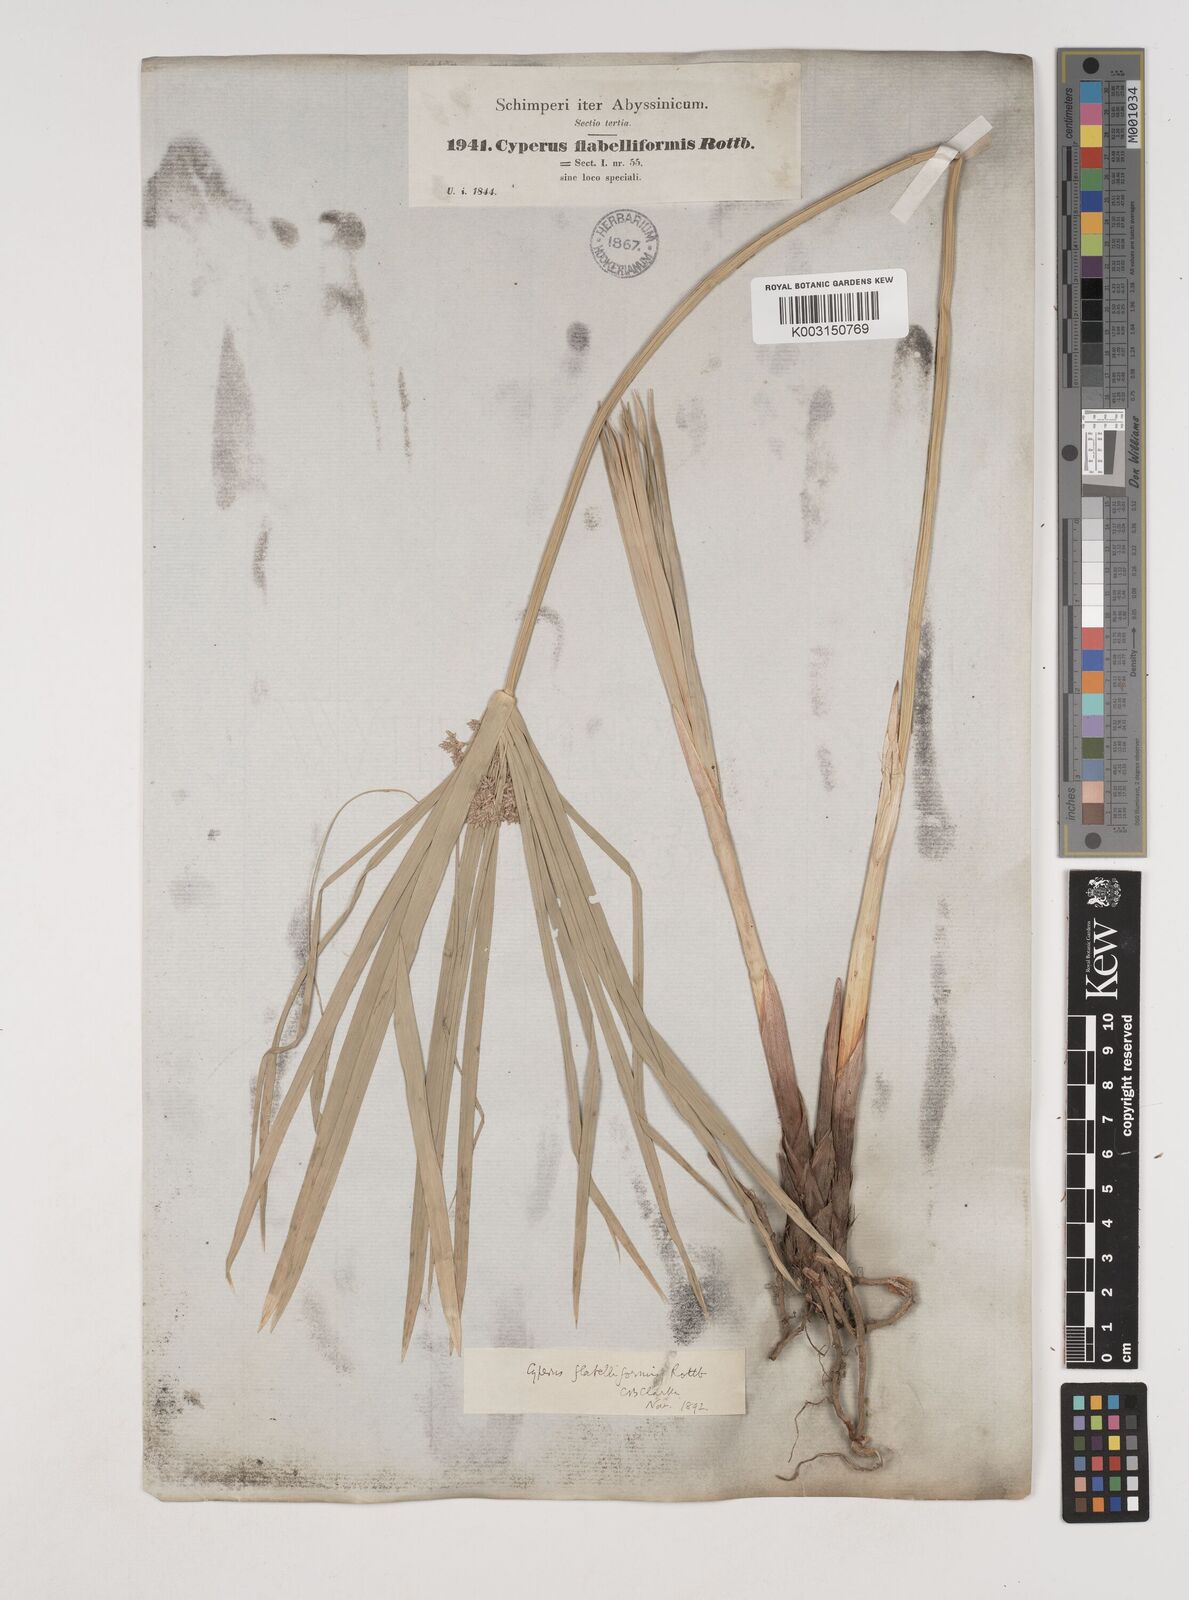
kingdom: Plantae
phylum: Tracheophyta
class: Liliopsida
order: Poales
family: Cyperaceae
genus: Cyperus
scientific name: Cyperus alternifolius
